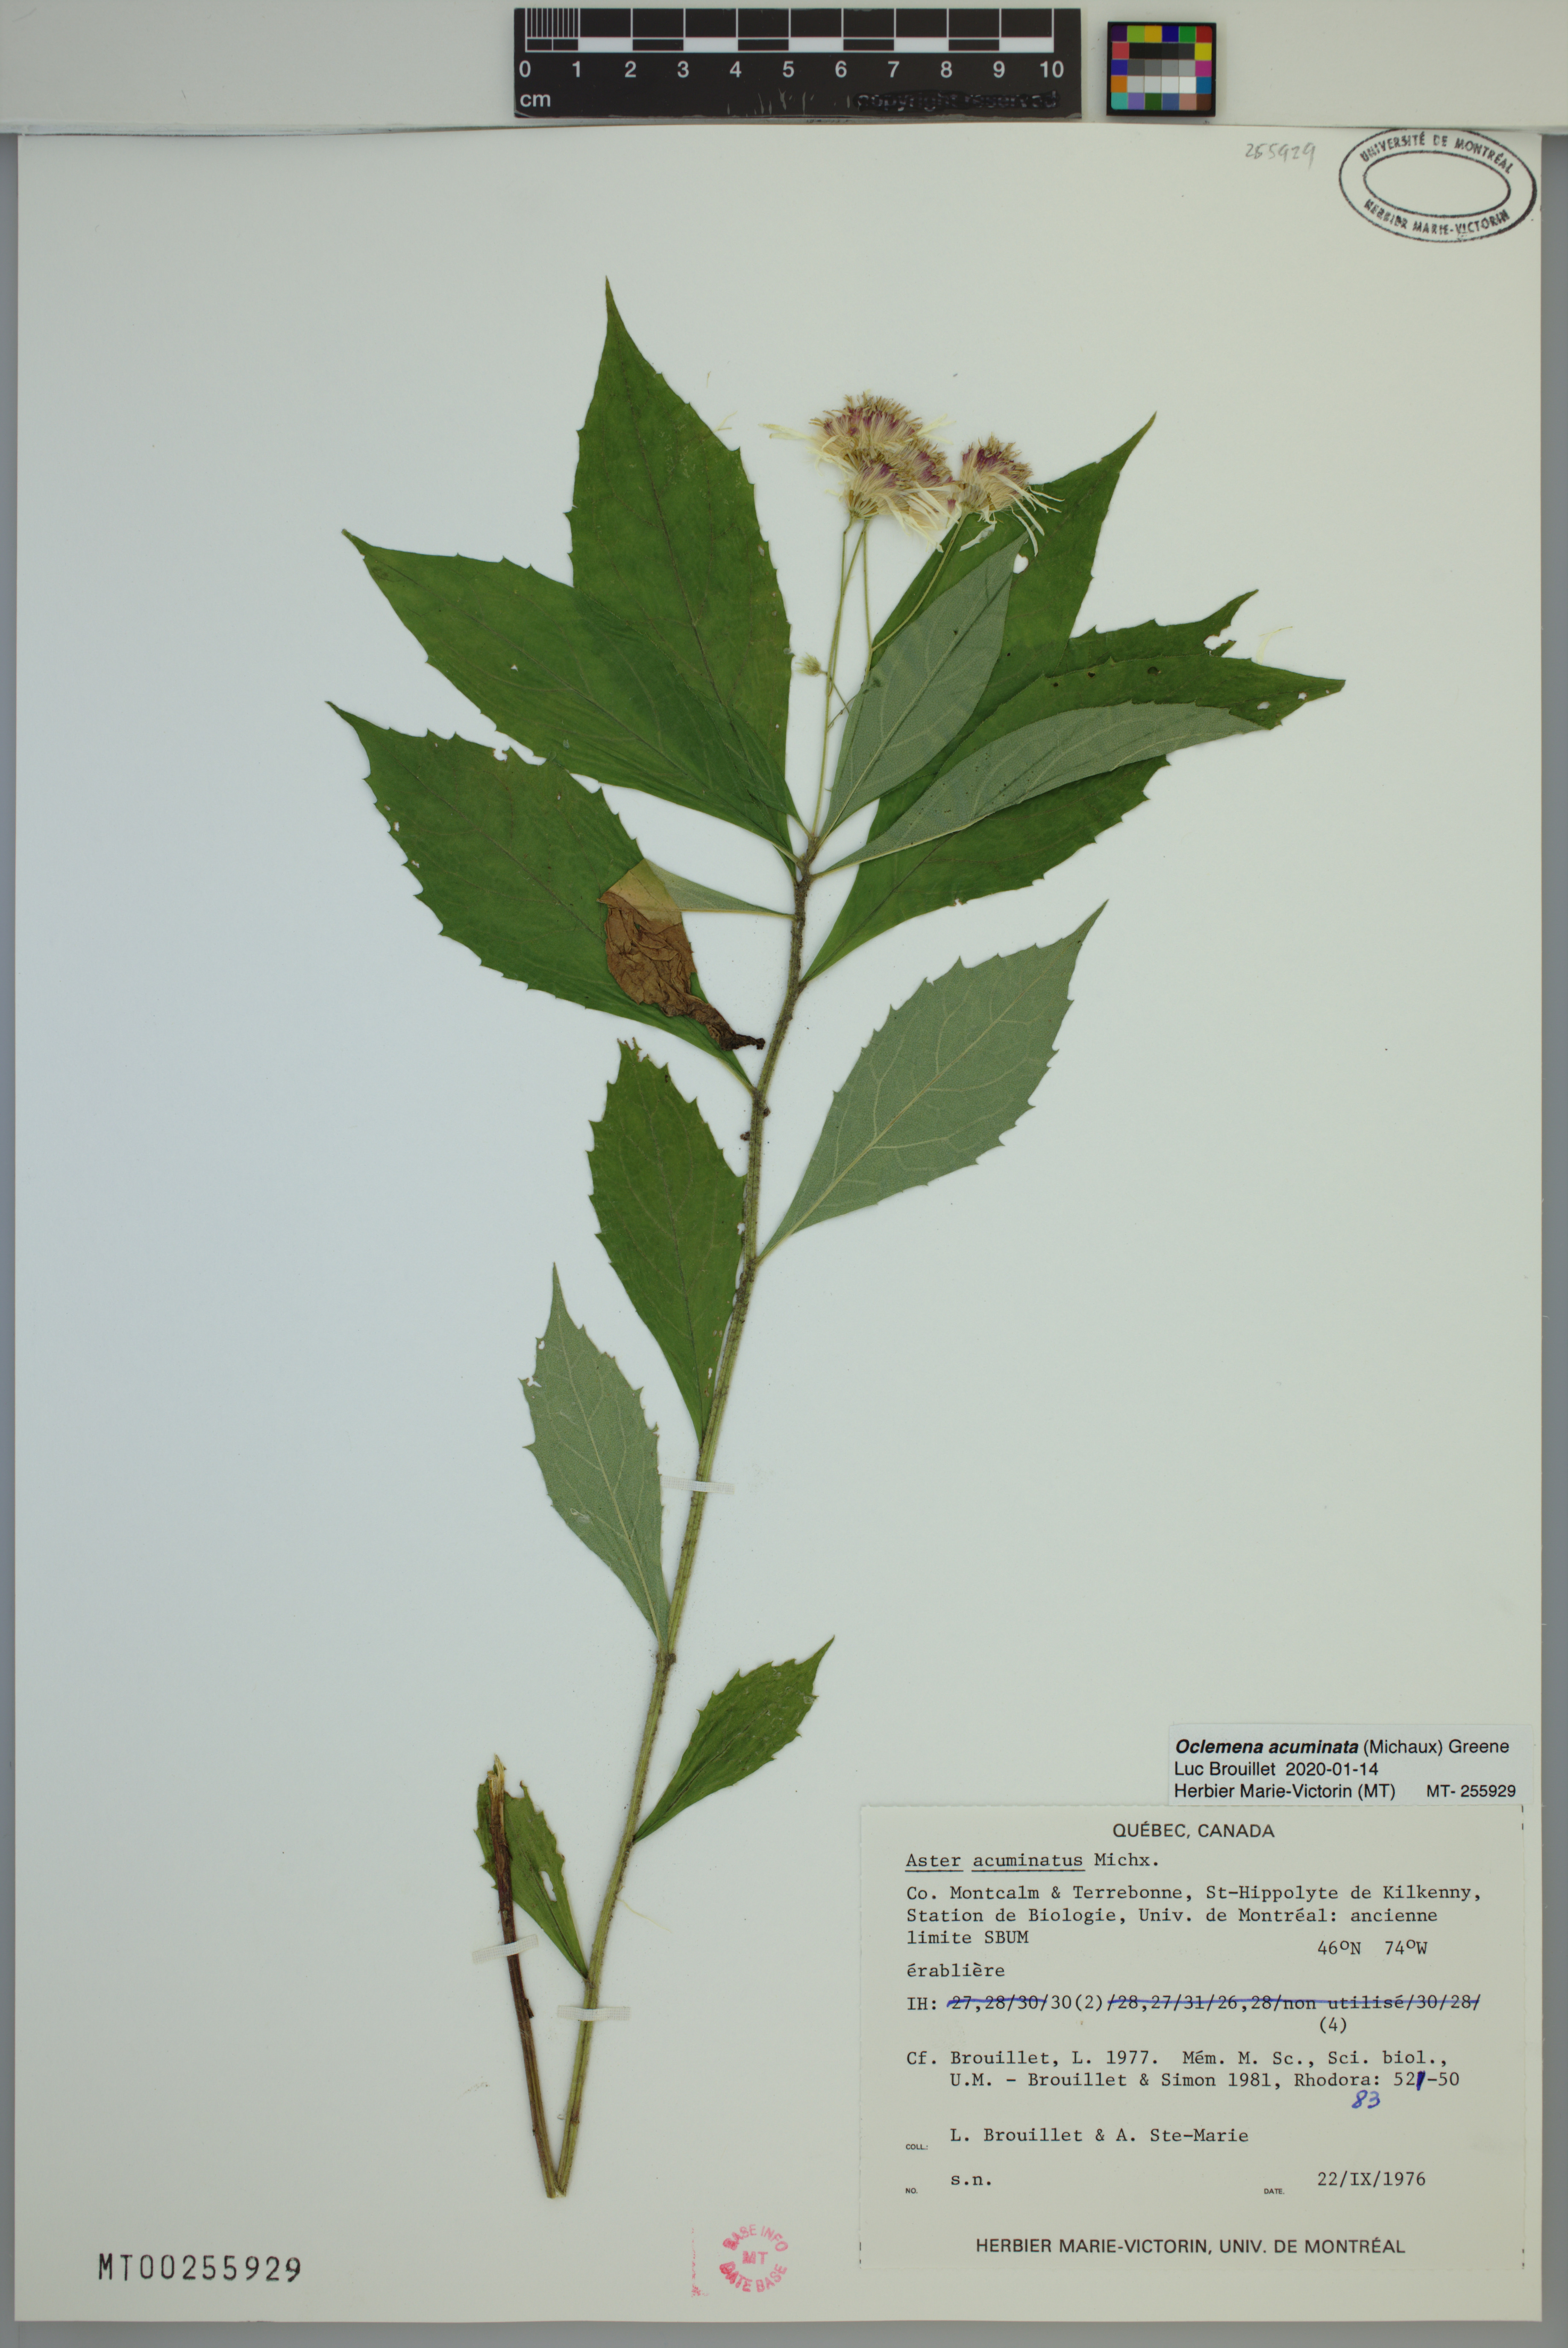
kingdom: Plantae
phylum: Tracheophyta
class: Magnoliopsida
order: Asterales
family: Asteraceae
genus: Oclemena
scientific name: Oclemena acuminata
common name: Mountain aster
